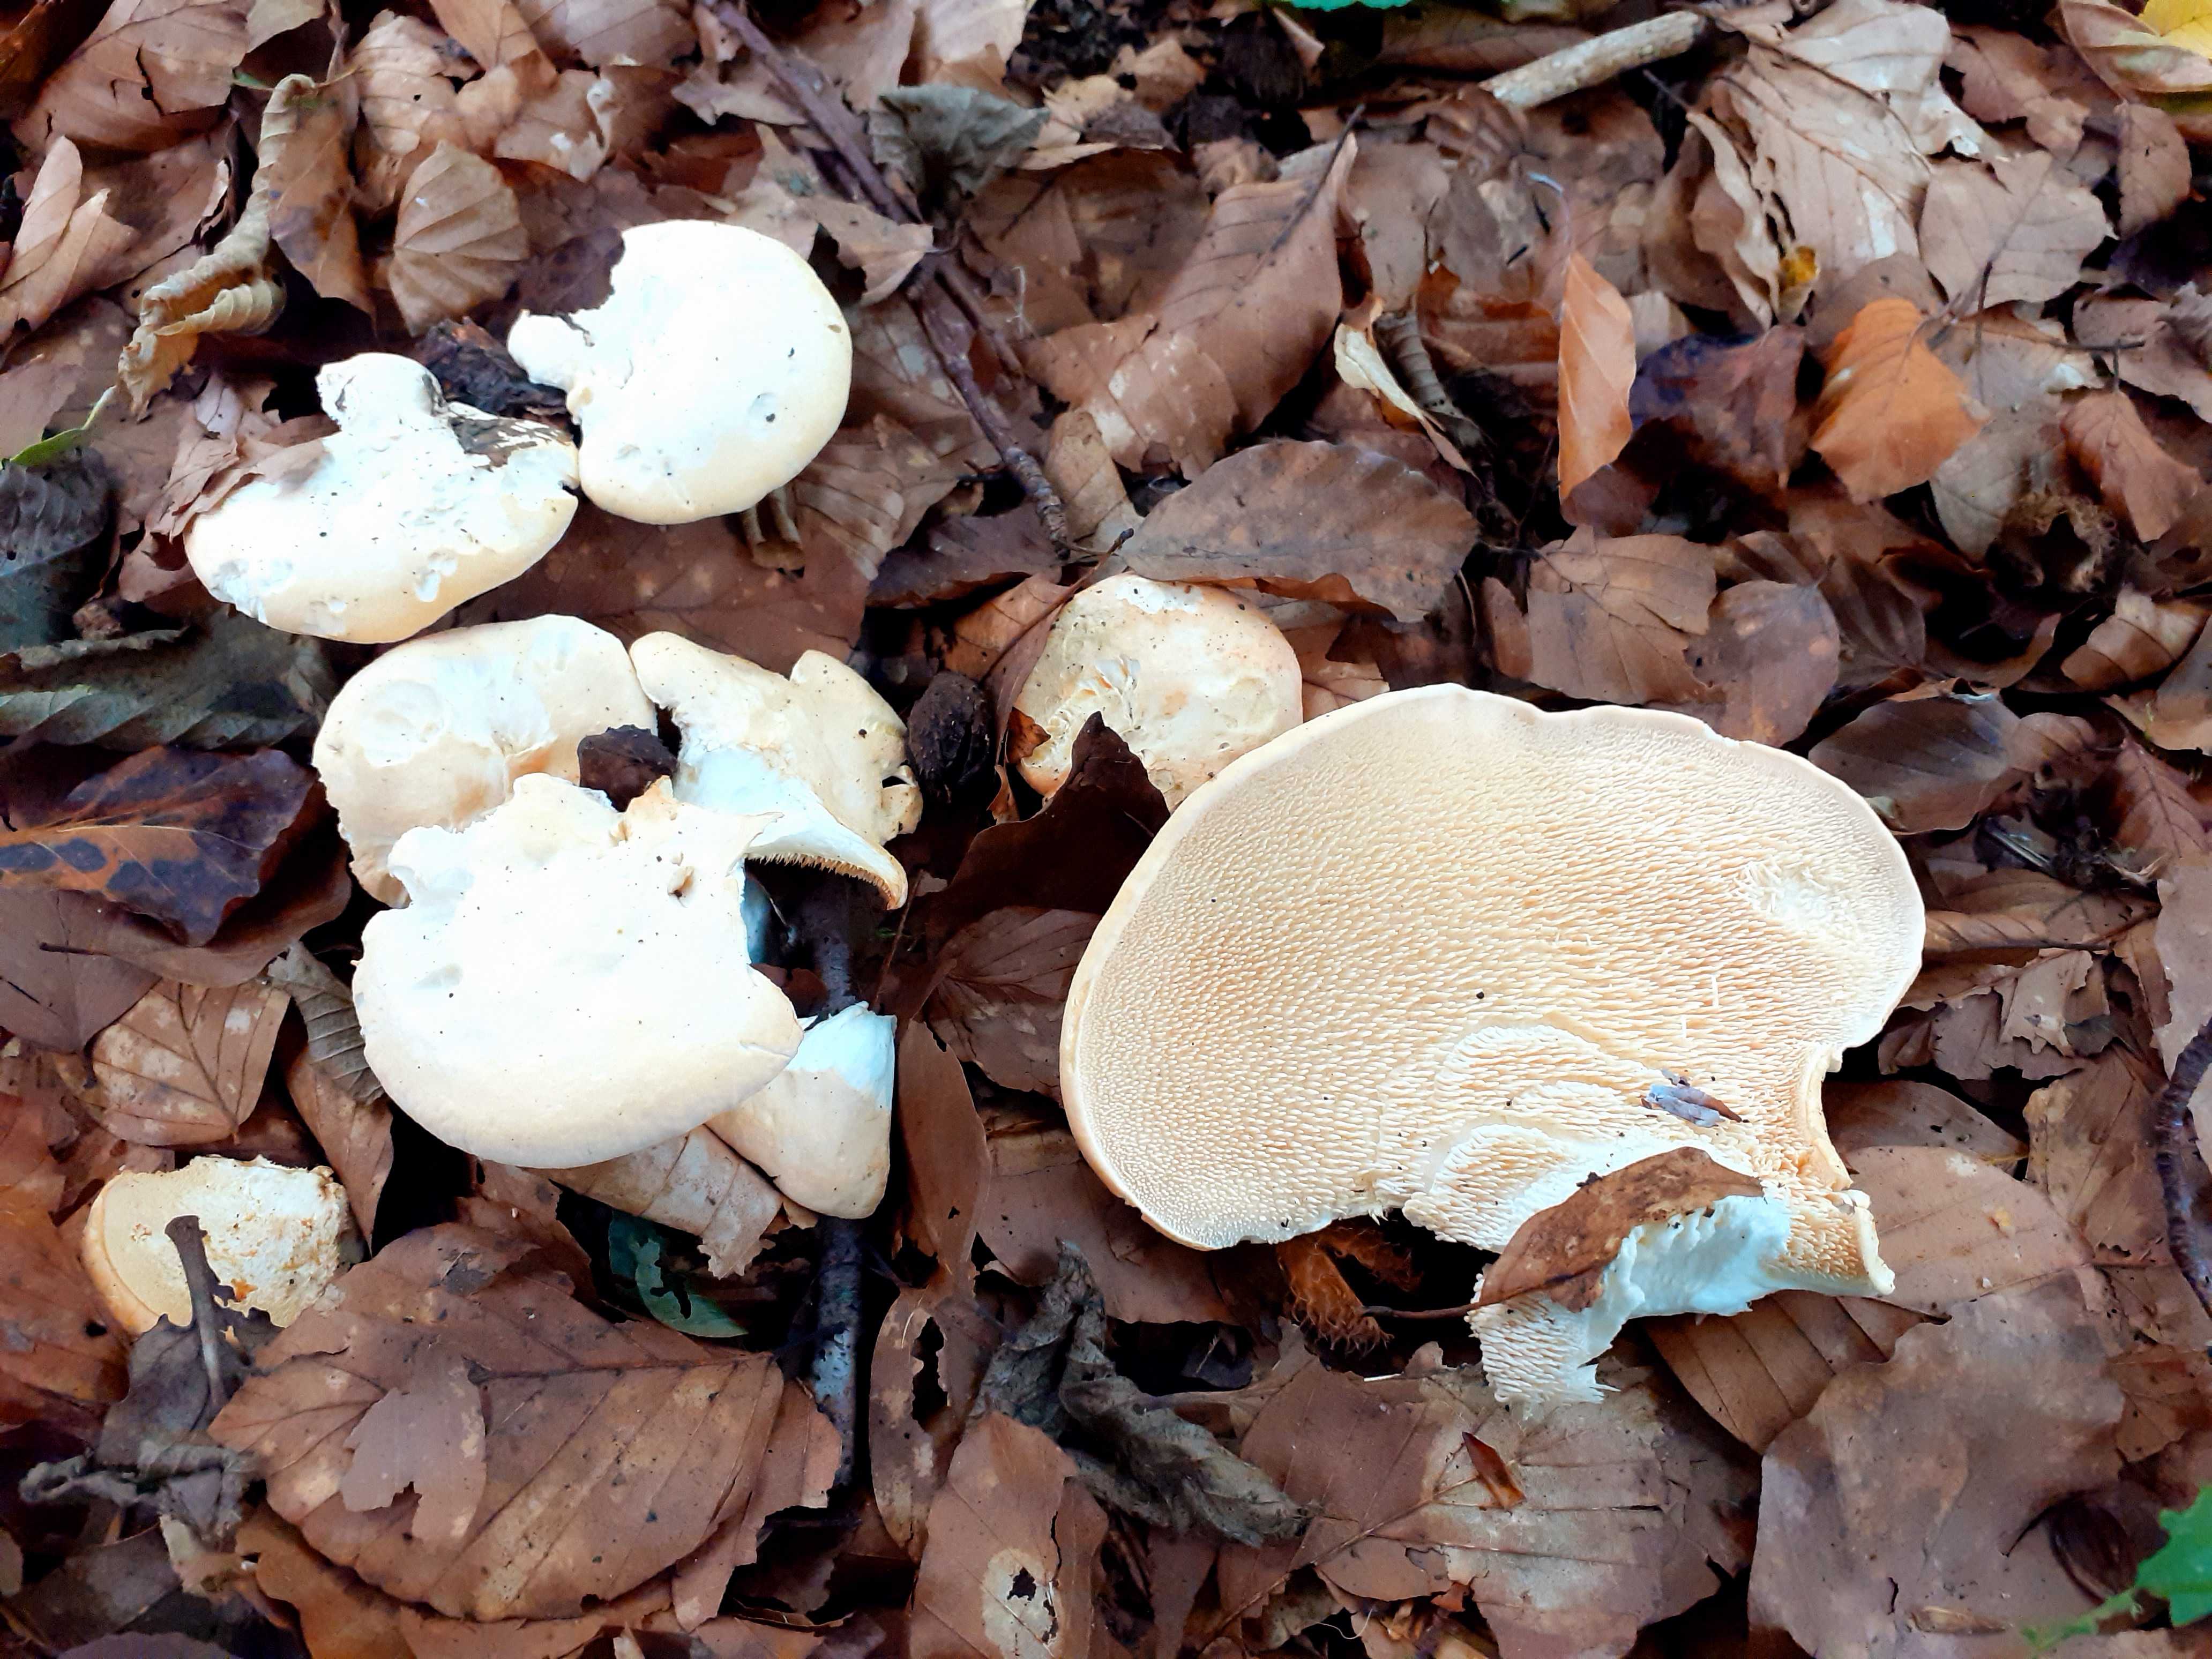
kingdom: Fungi
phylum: Basidiomycota
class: Agaricomycetes
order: Cantharellales
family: Hydnaceae
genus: Hydnum
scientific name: Hydnum repandum
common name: almindelig pigsvamp
